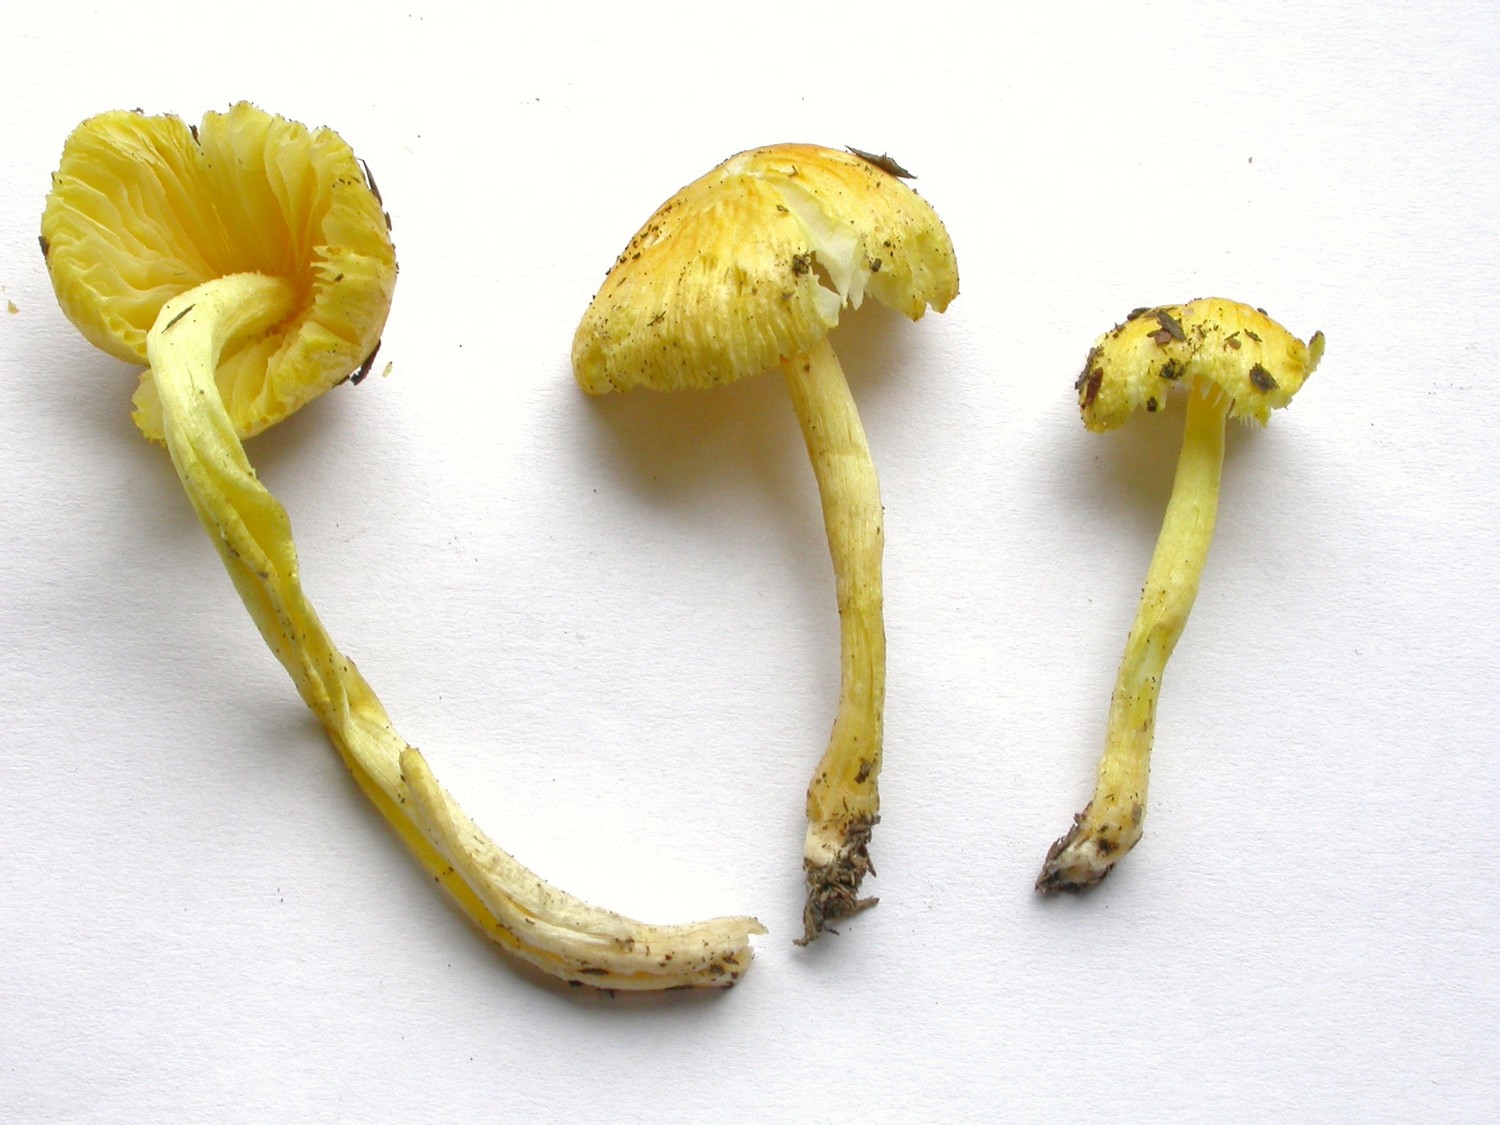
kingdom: Fungi
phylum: Basidiomycota
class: Agaricomycetes
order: Agaricales
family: Bolbitiaceae
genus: Bolbitius
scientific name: Bolbitius titubans
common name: almindelig gulhat
